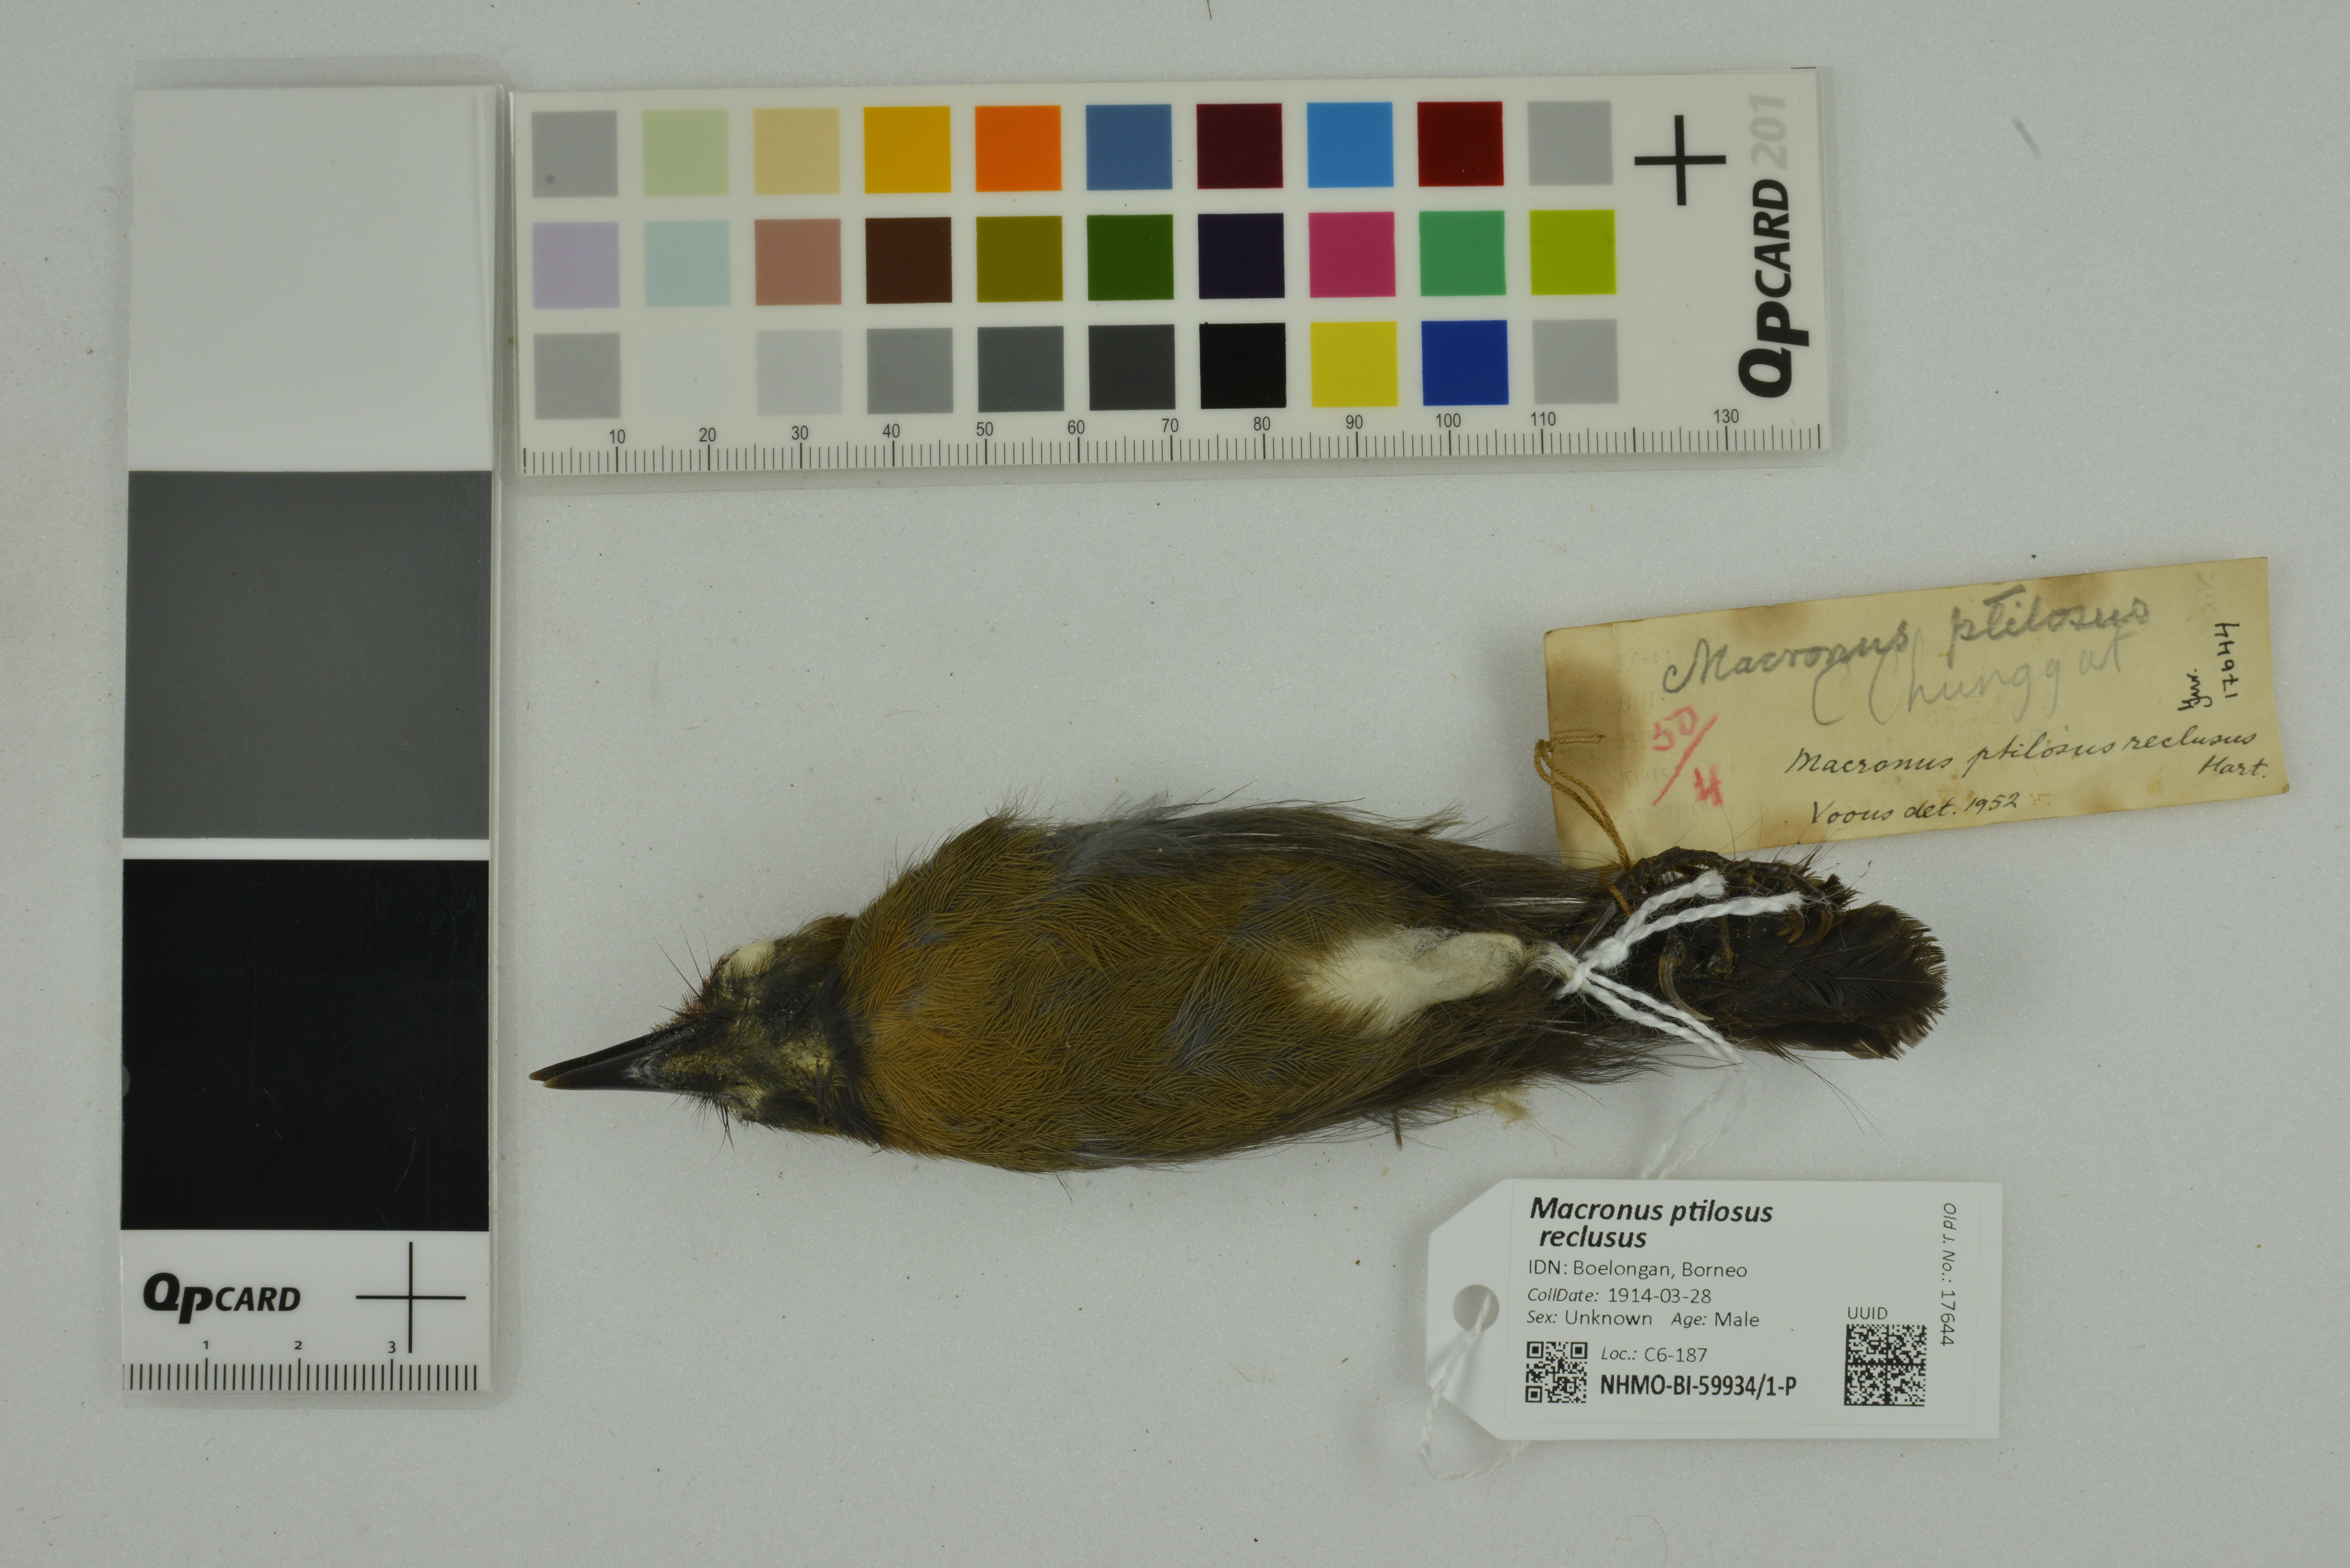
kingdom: Animalia
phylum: Chordata
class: Aves
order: Passeriformes
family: Timaliidae
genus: Macronus
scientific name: Macronus ptilosus
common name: Fluffy-backed tit-babbler
